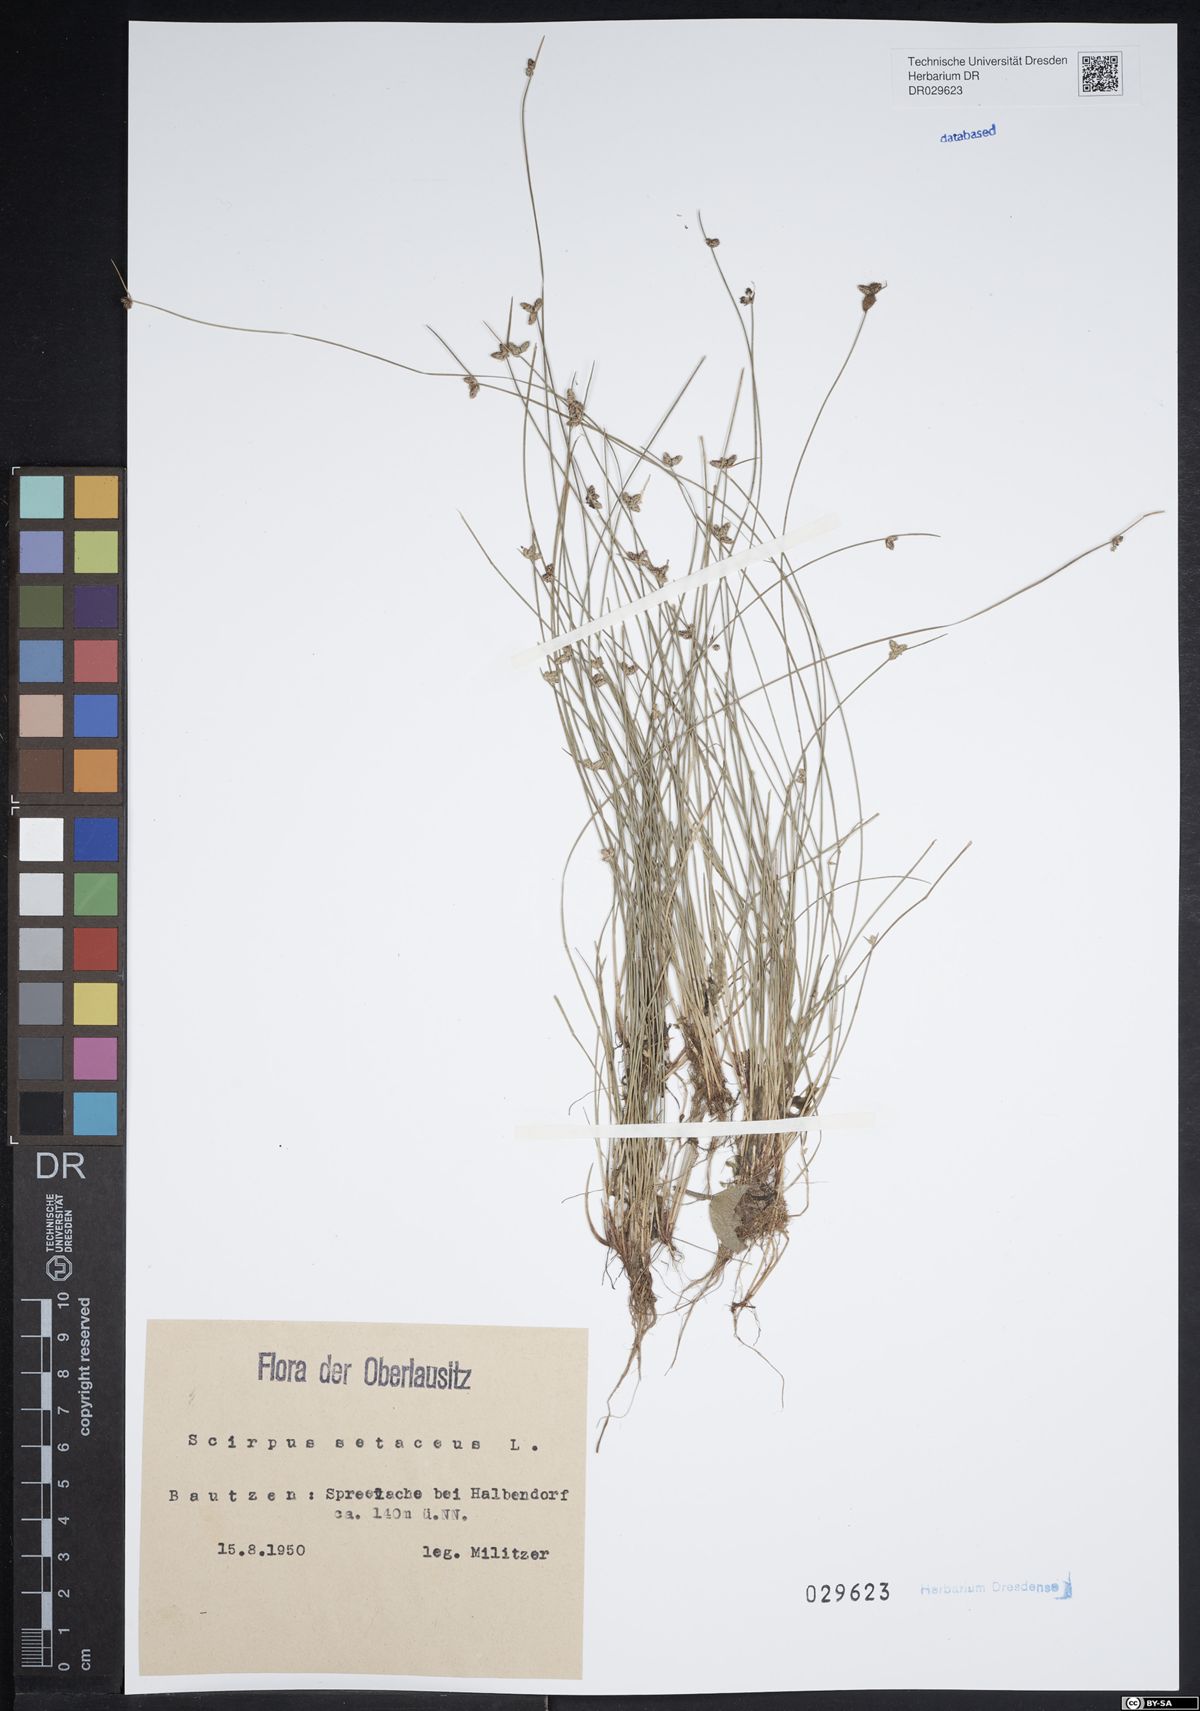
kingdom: Plantae
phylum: Tracheophyta
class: Liliopsida
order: Poales
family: Cyperaceae
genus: Isolepis
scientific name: Isolepis setacea
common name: Bristle club-rush
